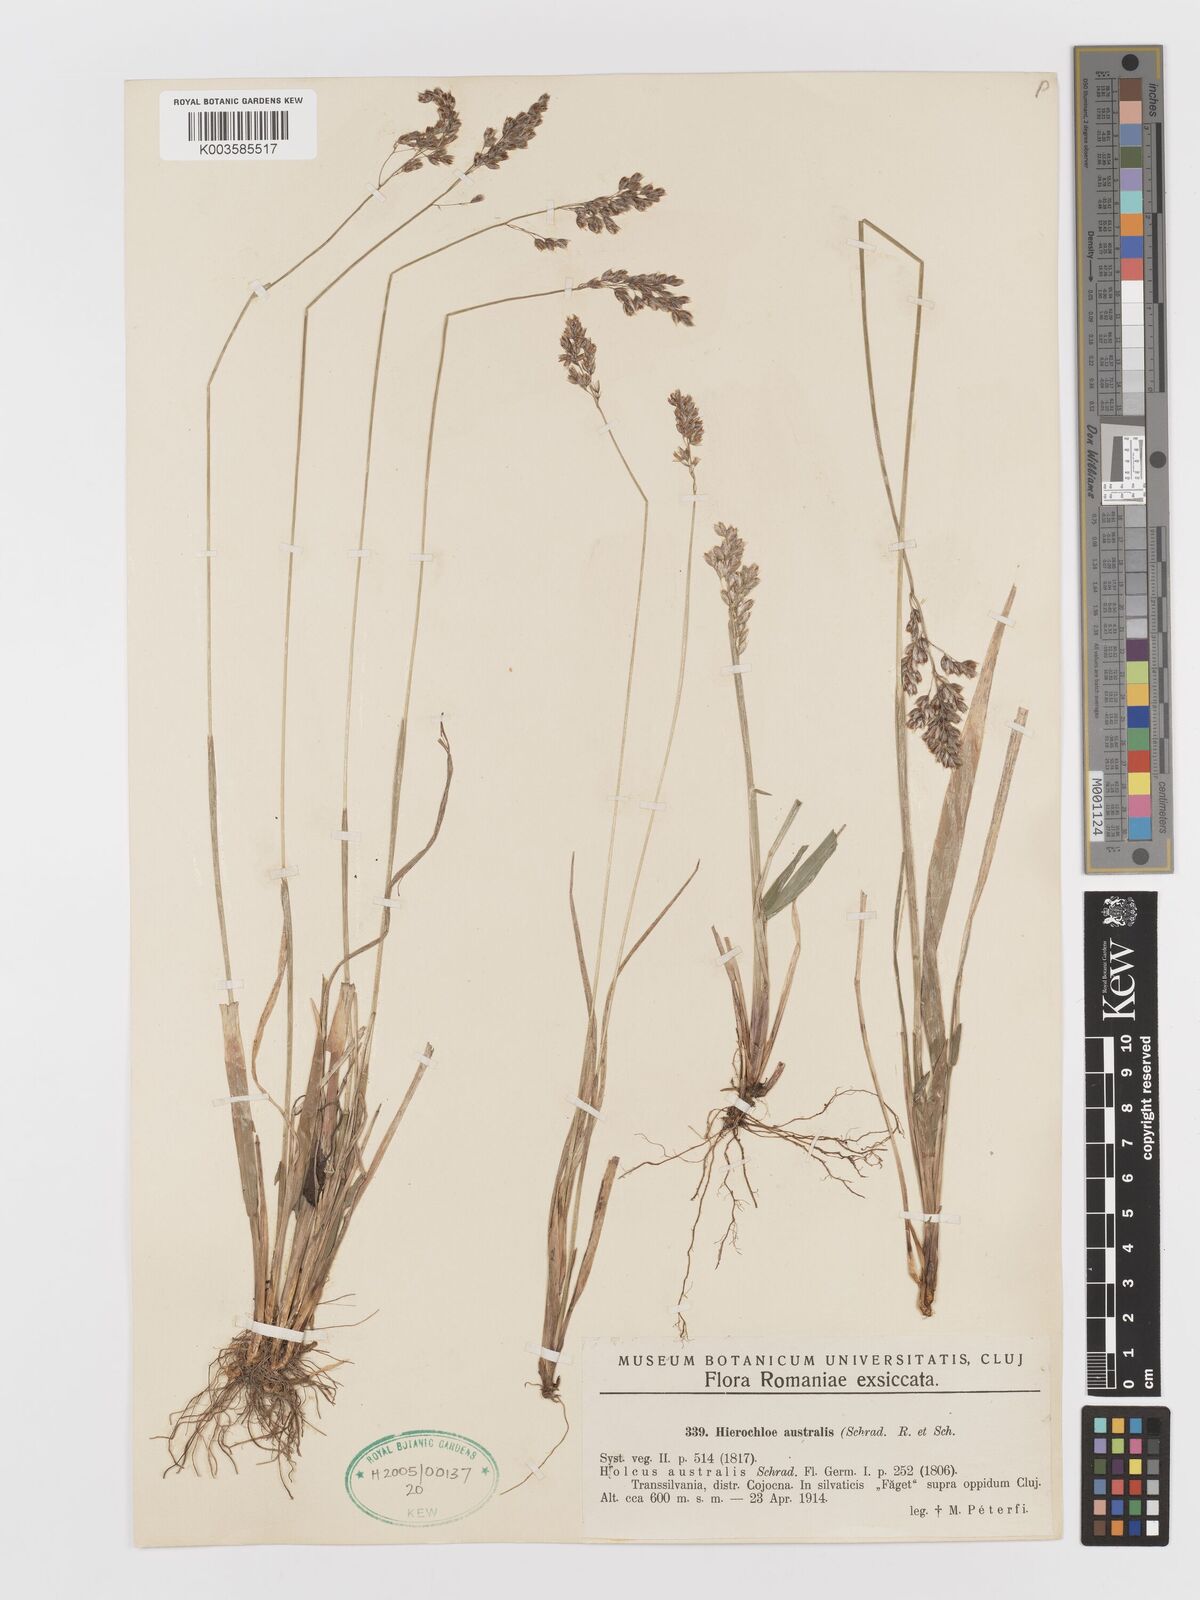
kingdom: Plantae
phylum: Tracheophyta
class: Liliopsida
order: Poales
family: Poaceae
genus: Anthoxanthum
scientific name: Anthoxanthum australe
